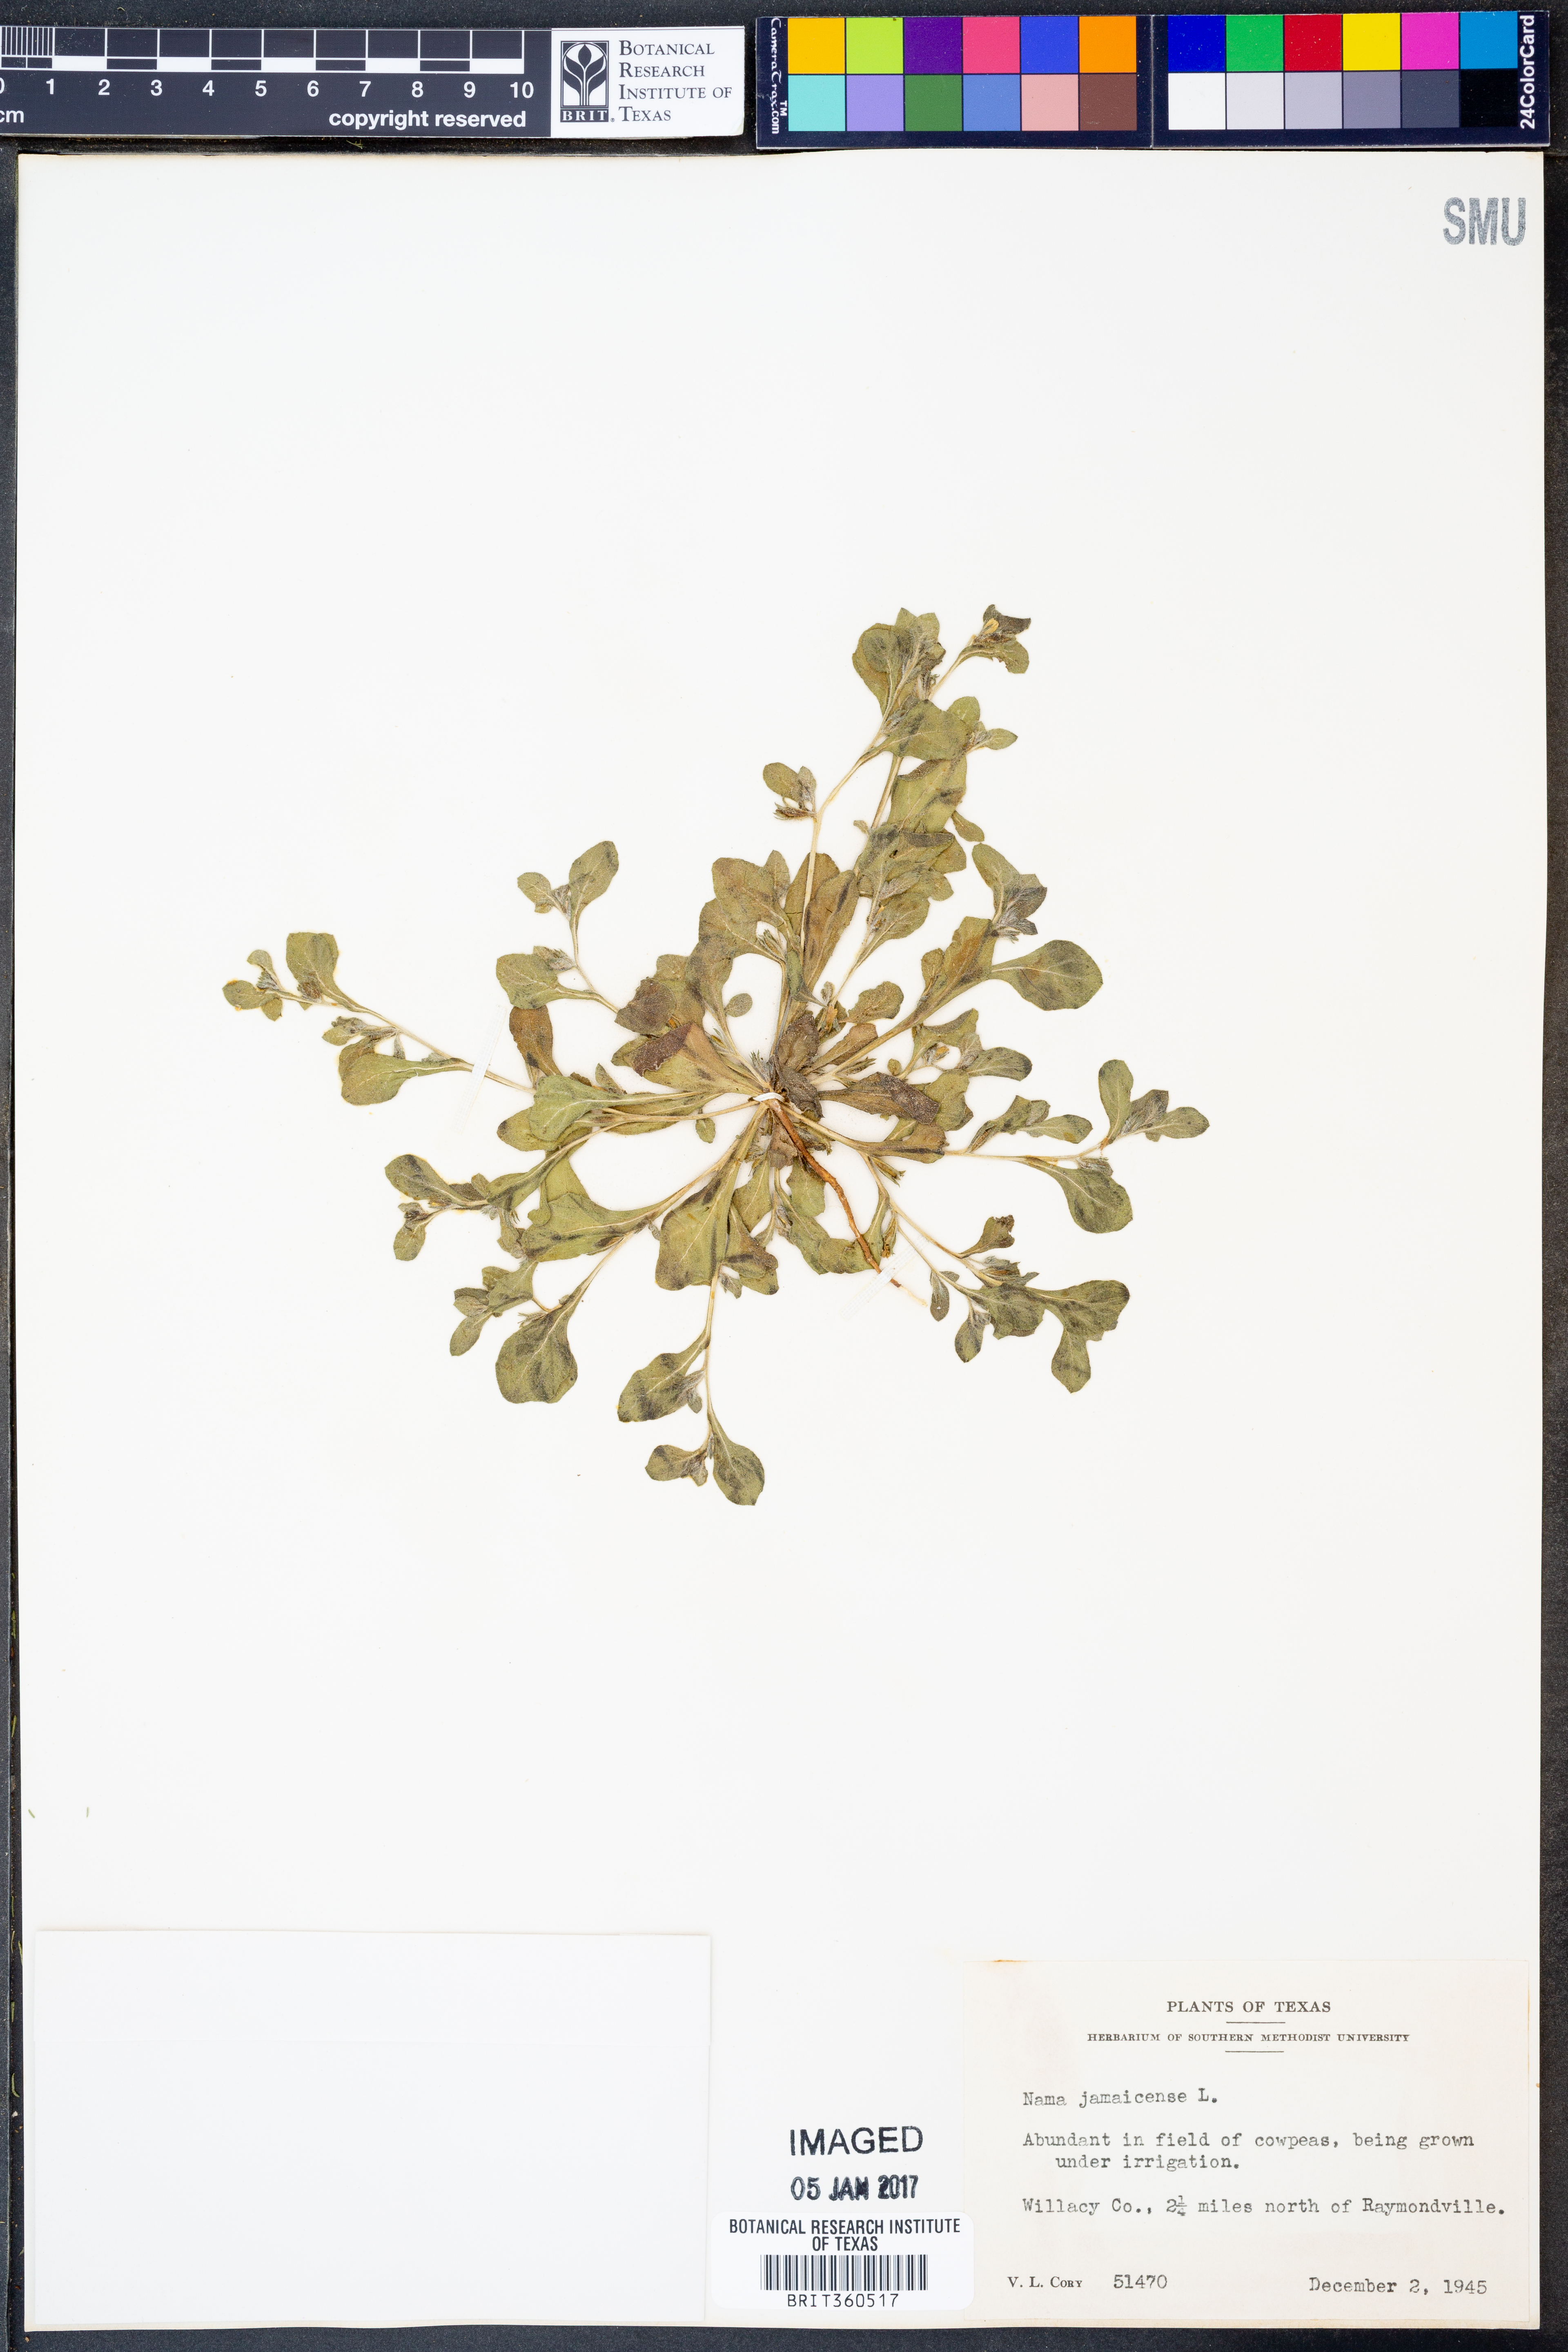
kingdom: Plantae
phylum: Tracheophyta
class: Magnoliopsida
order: Boraginales
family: Namaceae
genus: Nama
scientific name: Nama jamaicense
